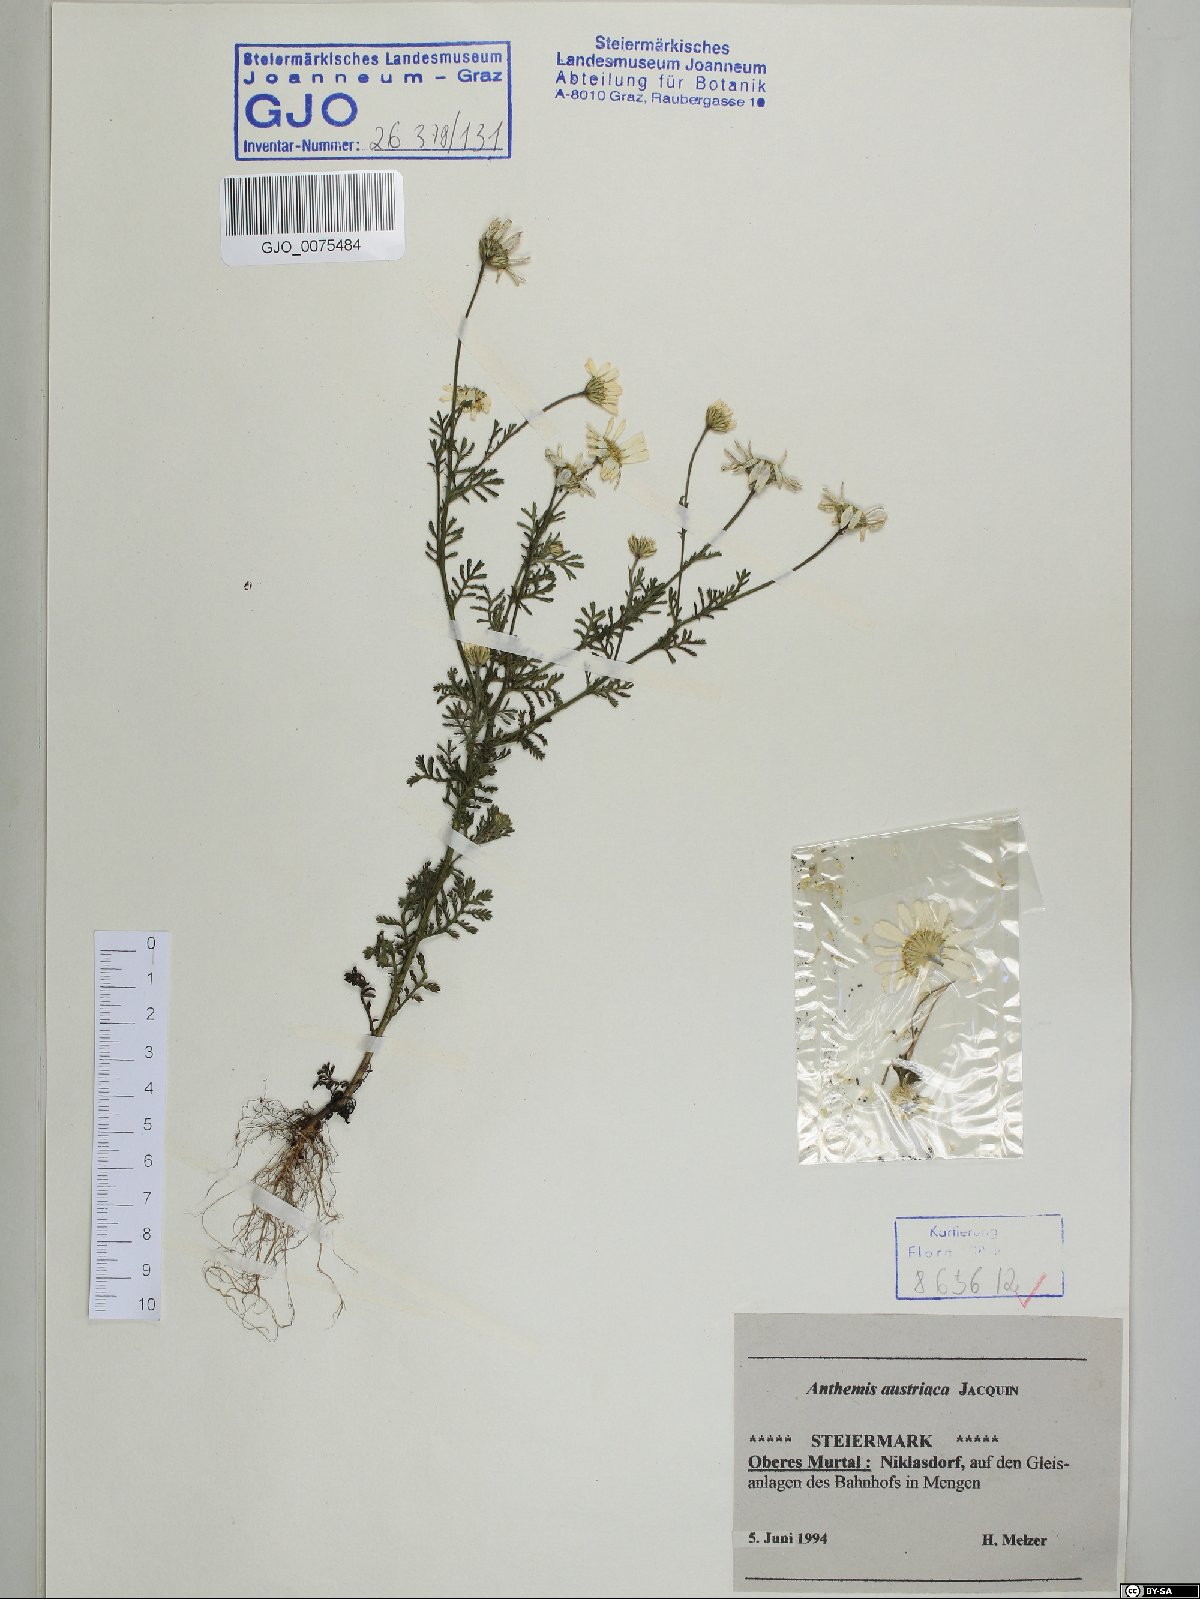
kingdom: Plantae
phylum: Tracheophyta
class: Magnoliopsida
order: Asterales
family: Asteraceae
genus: Cota
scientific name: Cota austriaca
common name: Austrian chamomile
